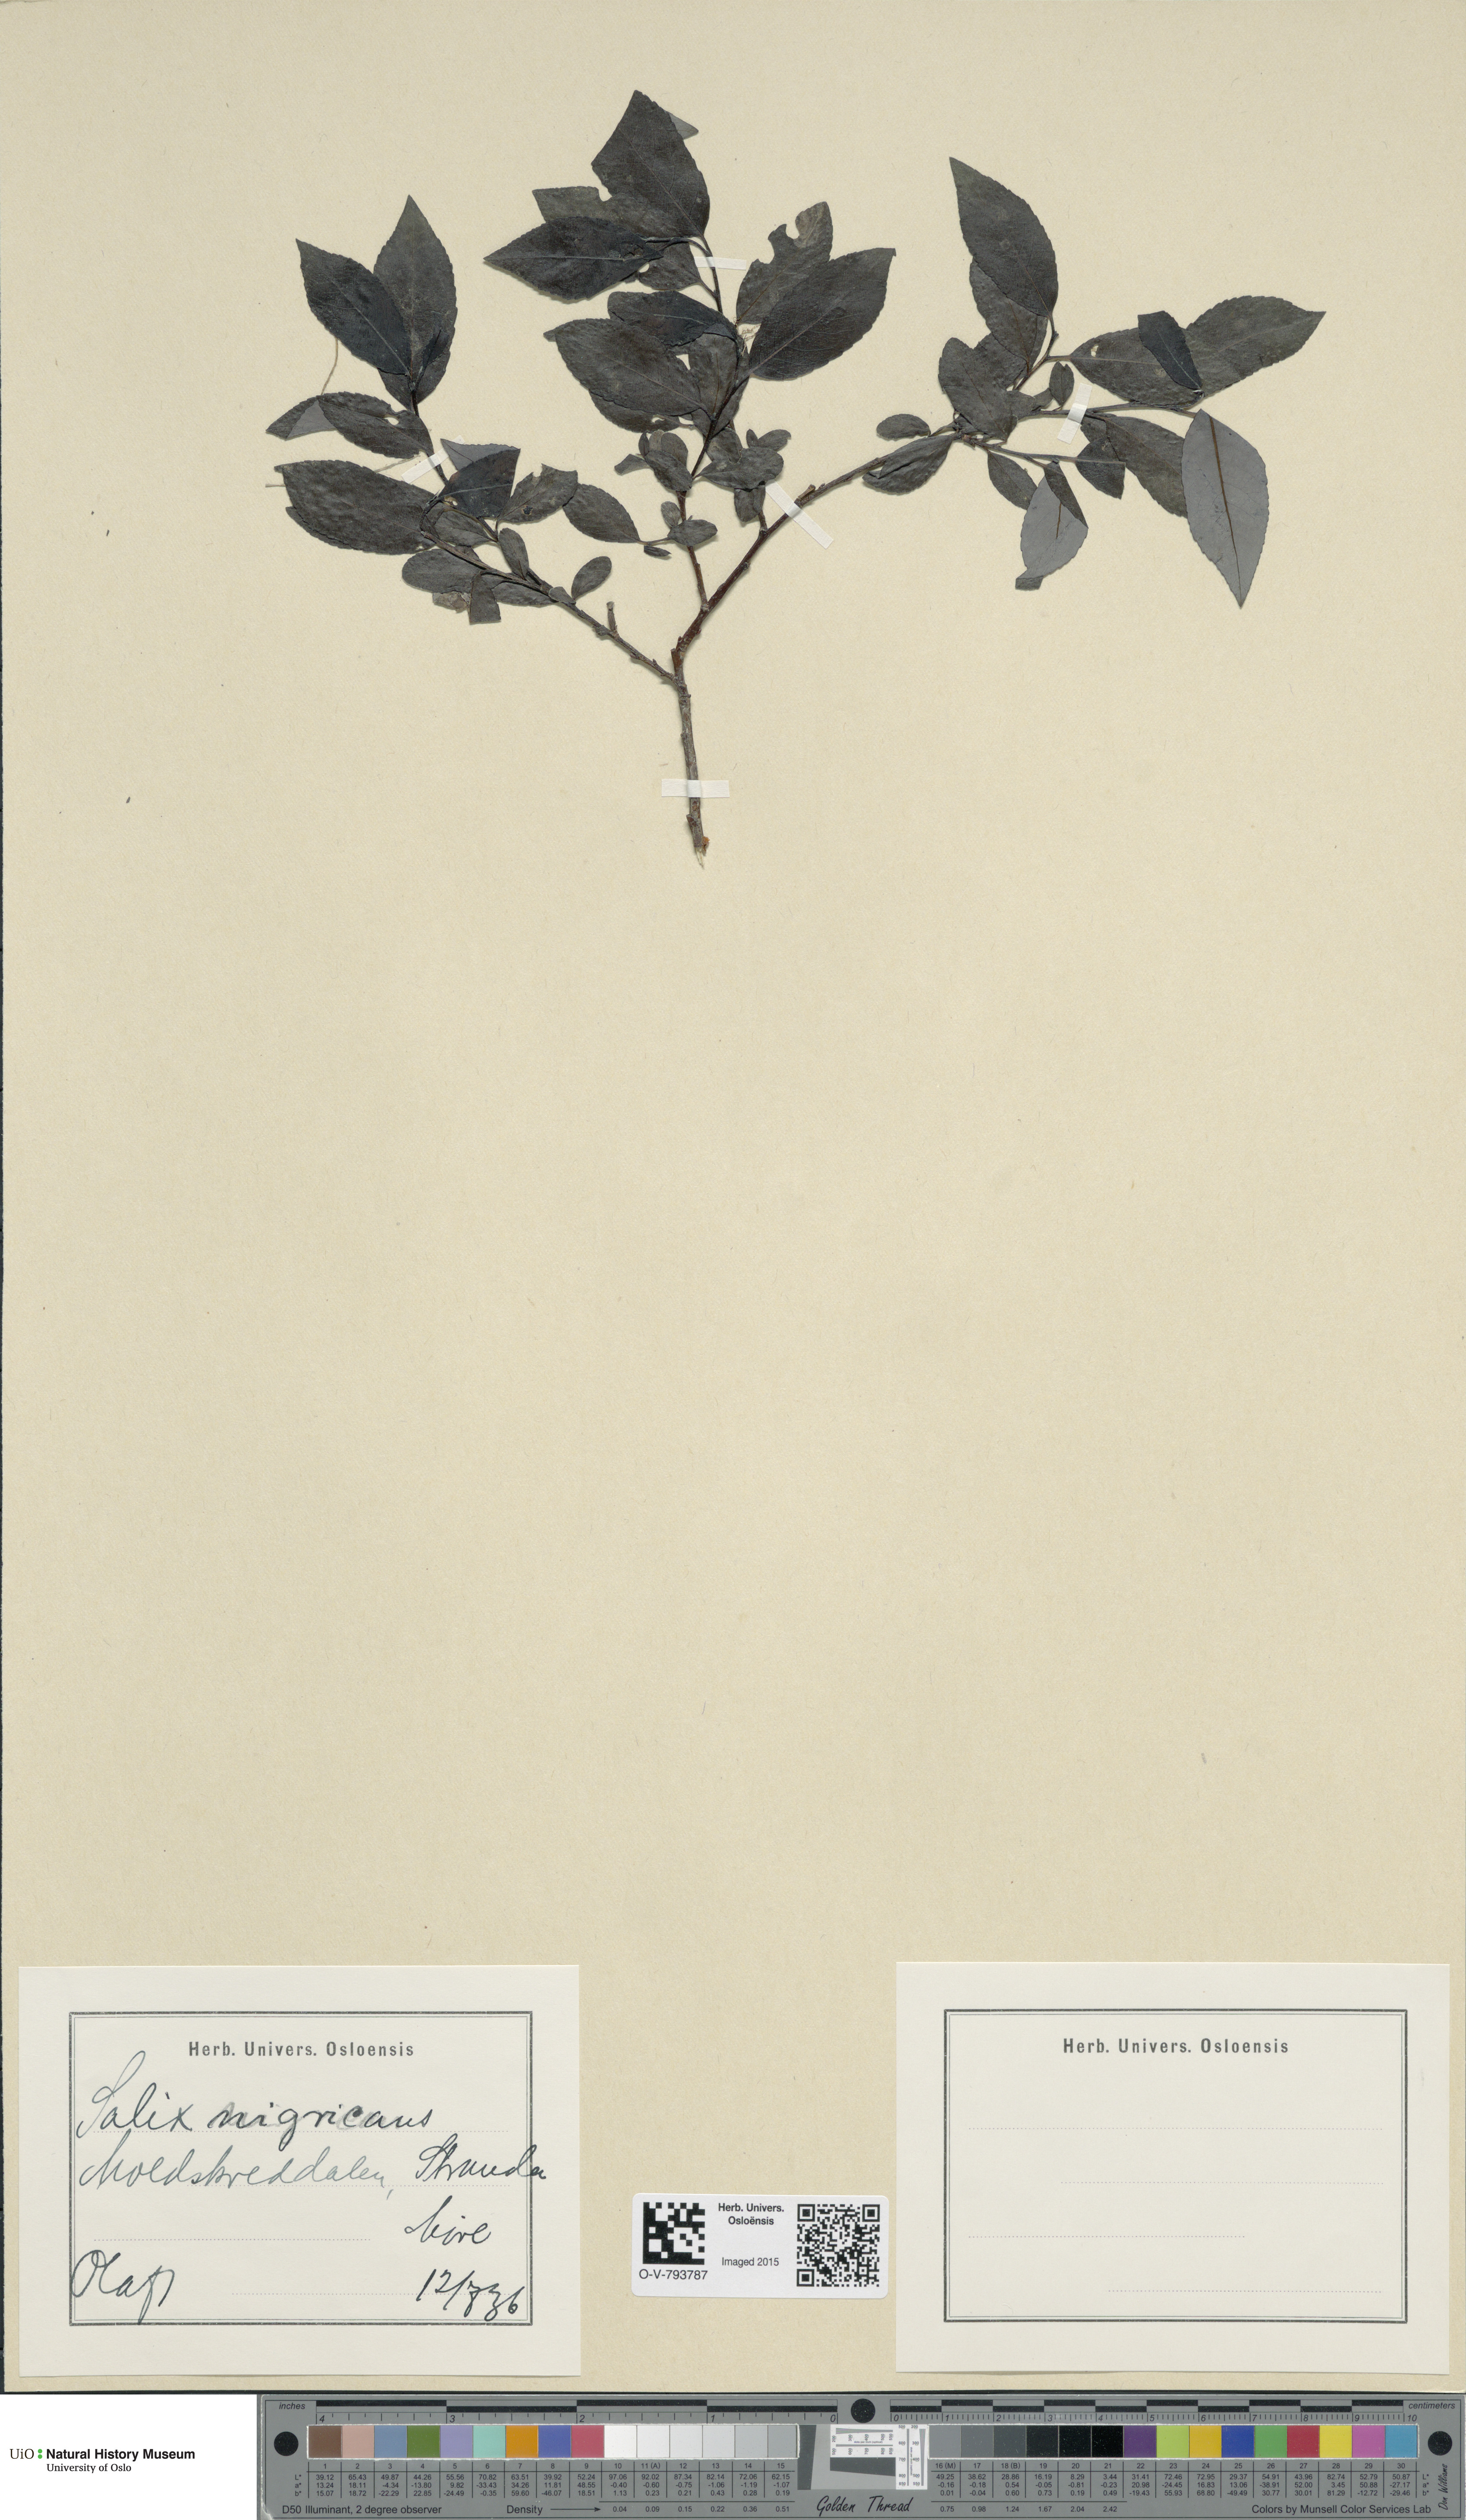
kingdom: Plantae
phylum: Tracheophyta
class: Magnoliopsida
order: Malpighiales
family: Salicaceae
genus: Salix
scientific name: Salix myrsinifolia
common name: Dark-leaved willow
